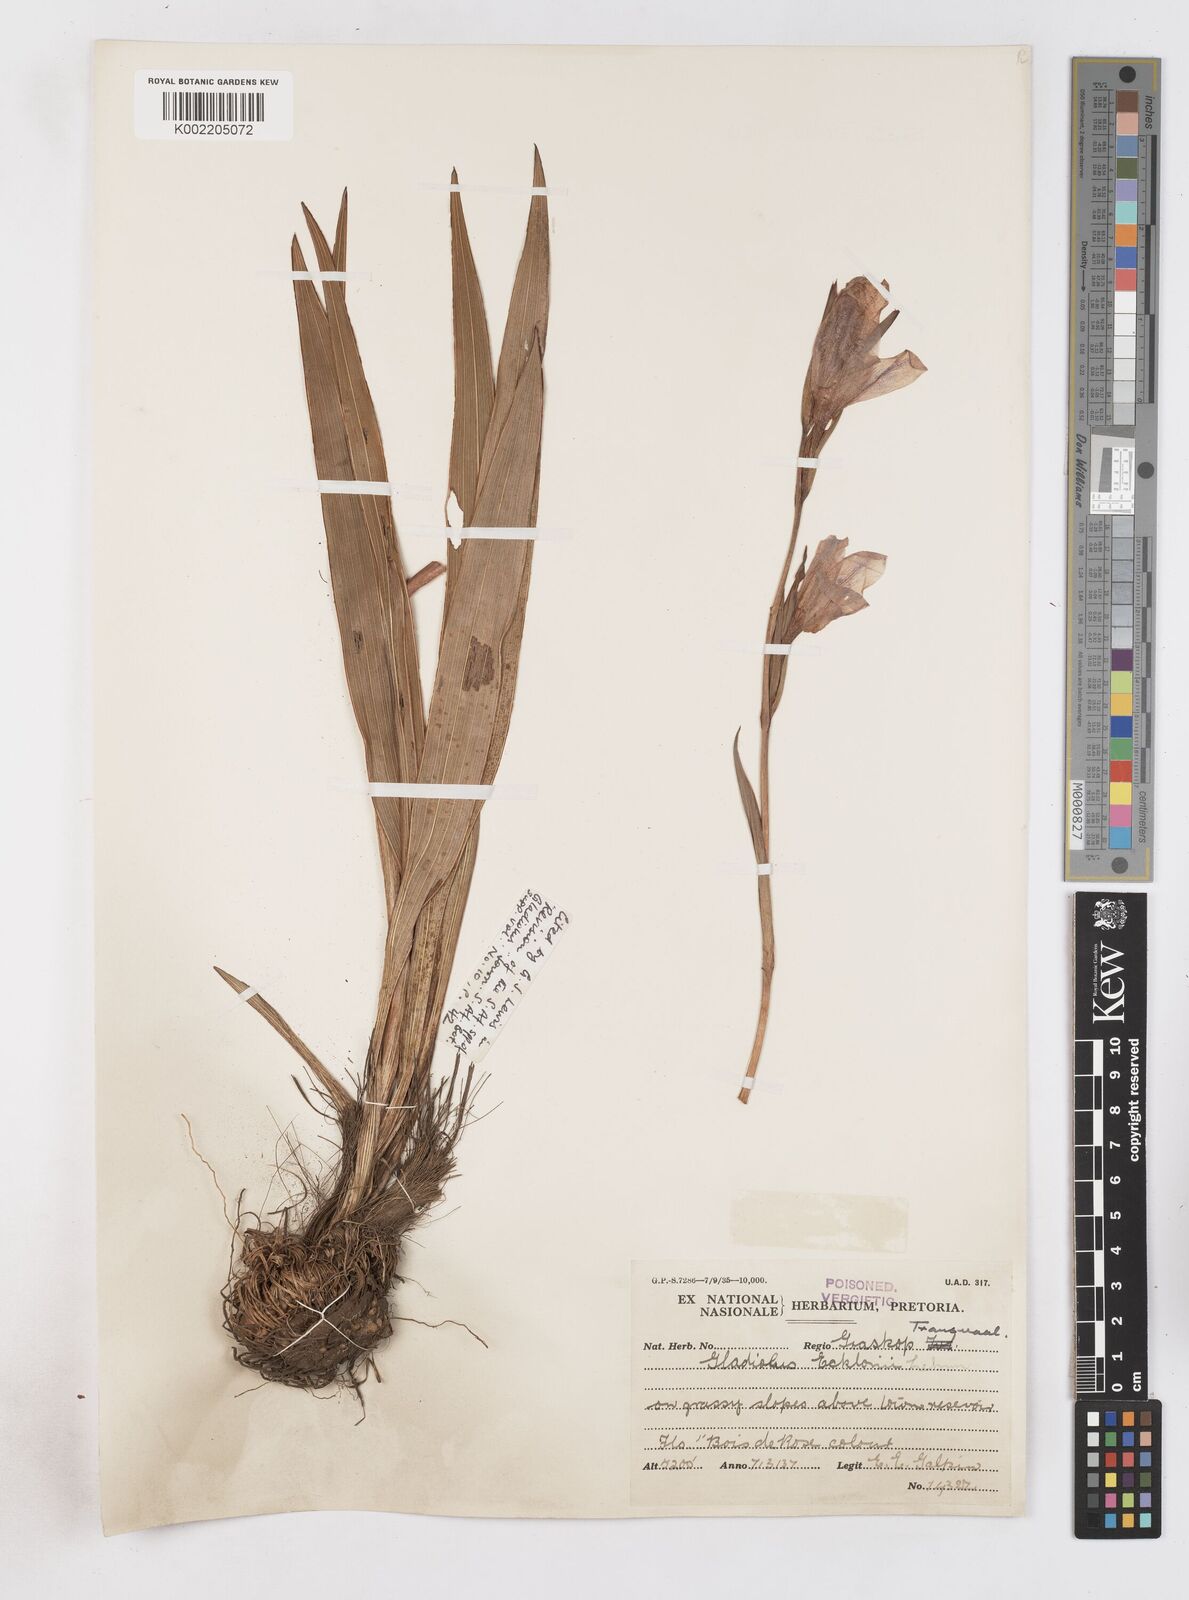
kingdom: Plantae
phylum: Tracheophyta
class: Liliopsida
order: Asparagales
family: Iridaceae
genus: Gladiolus
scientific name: Gladiolus ecklonii
